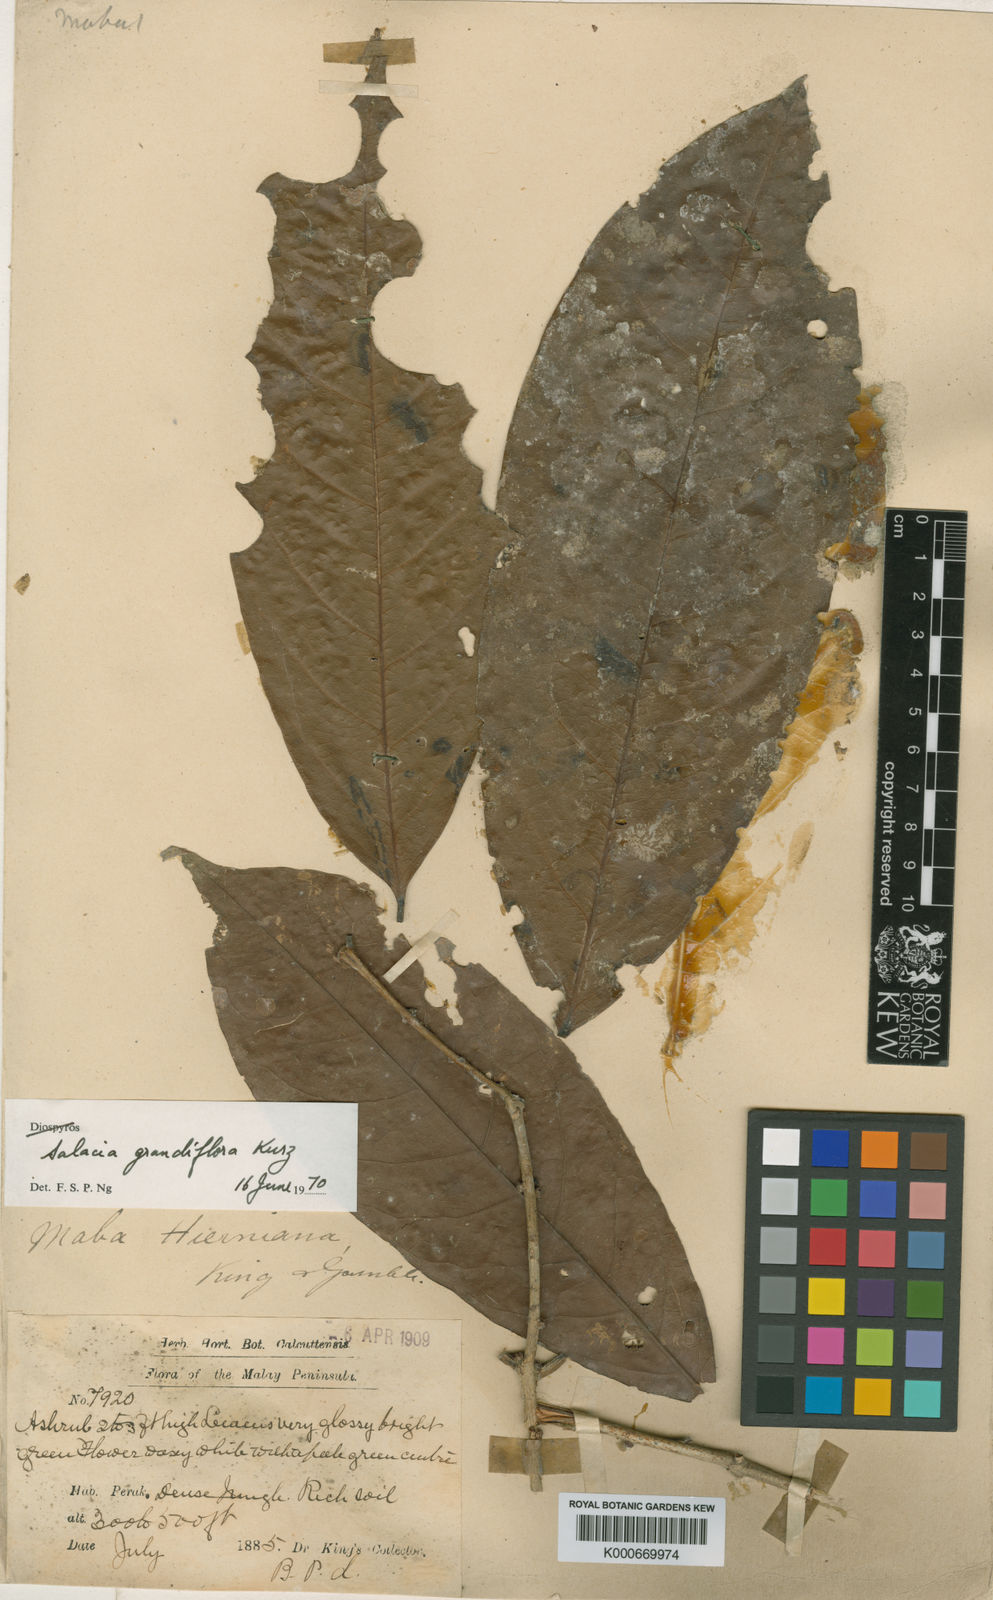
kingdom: Plantae
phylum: Tracheophyta
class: Magnoliopsida
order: Celastrales
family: Celastraceae
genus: Salacia
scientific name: Salacia grandiflora
